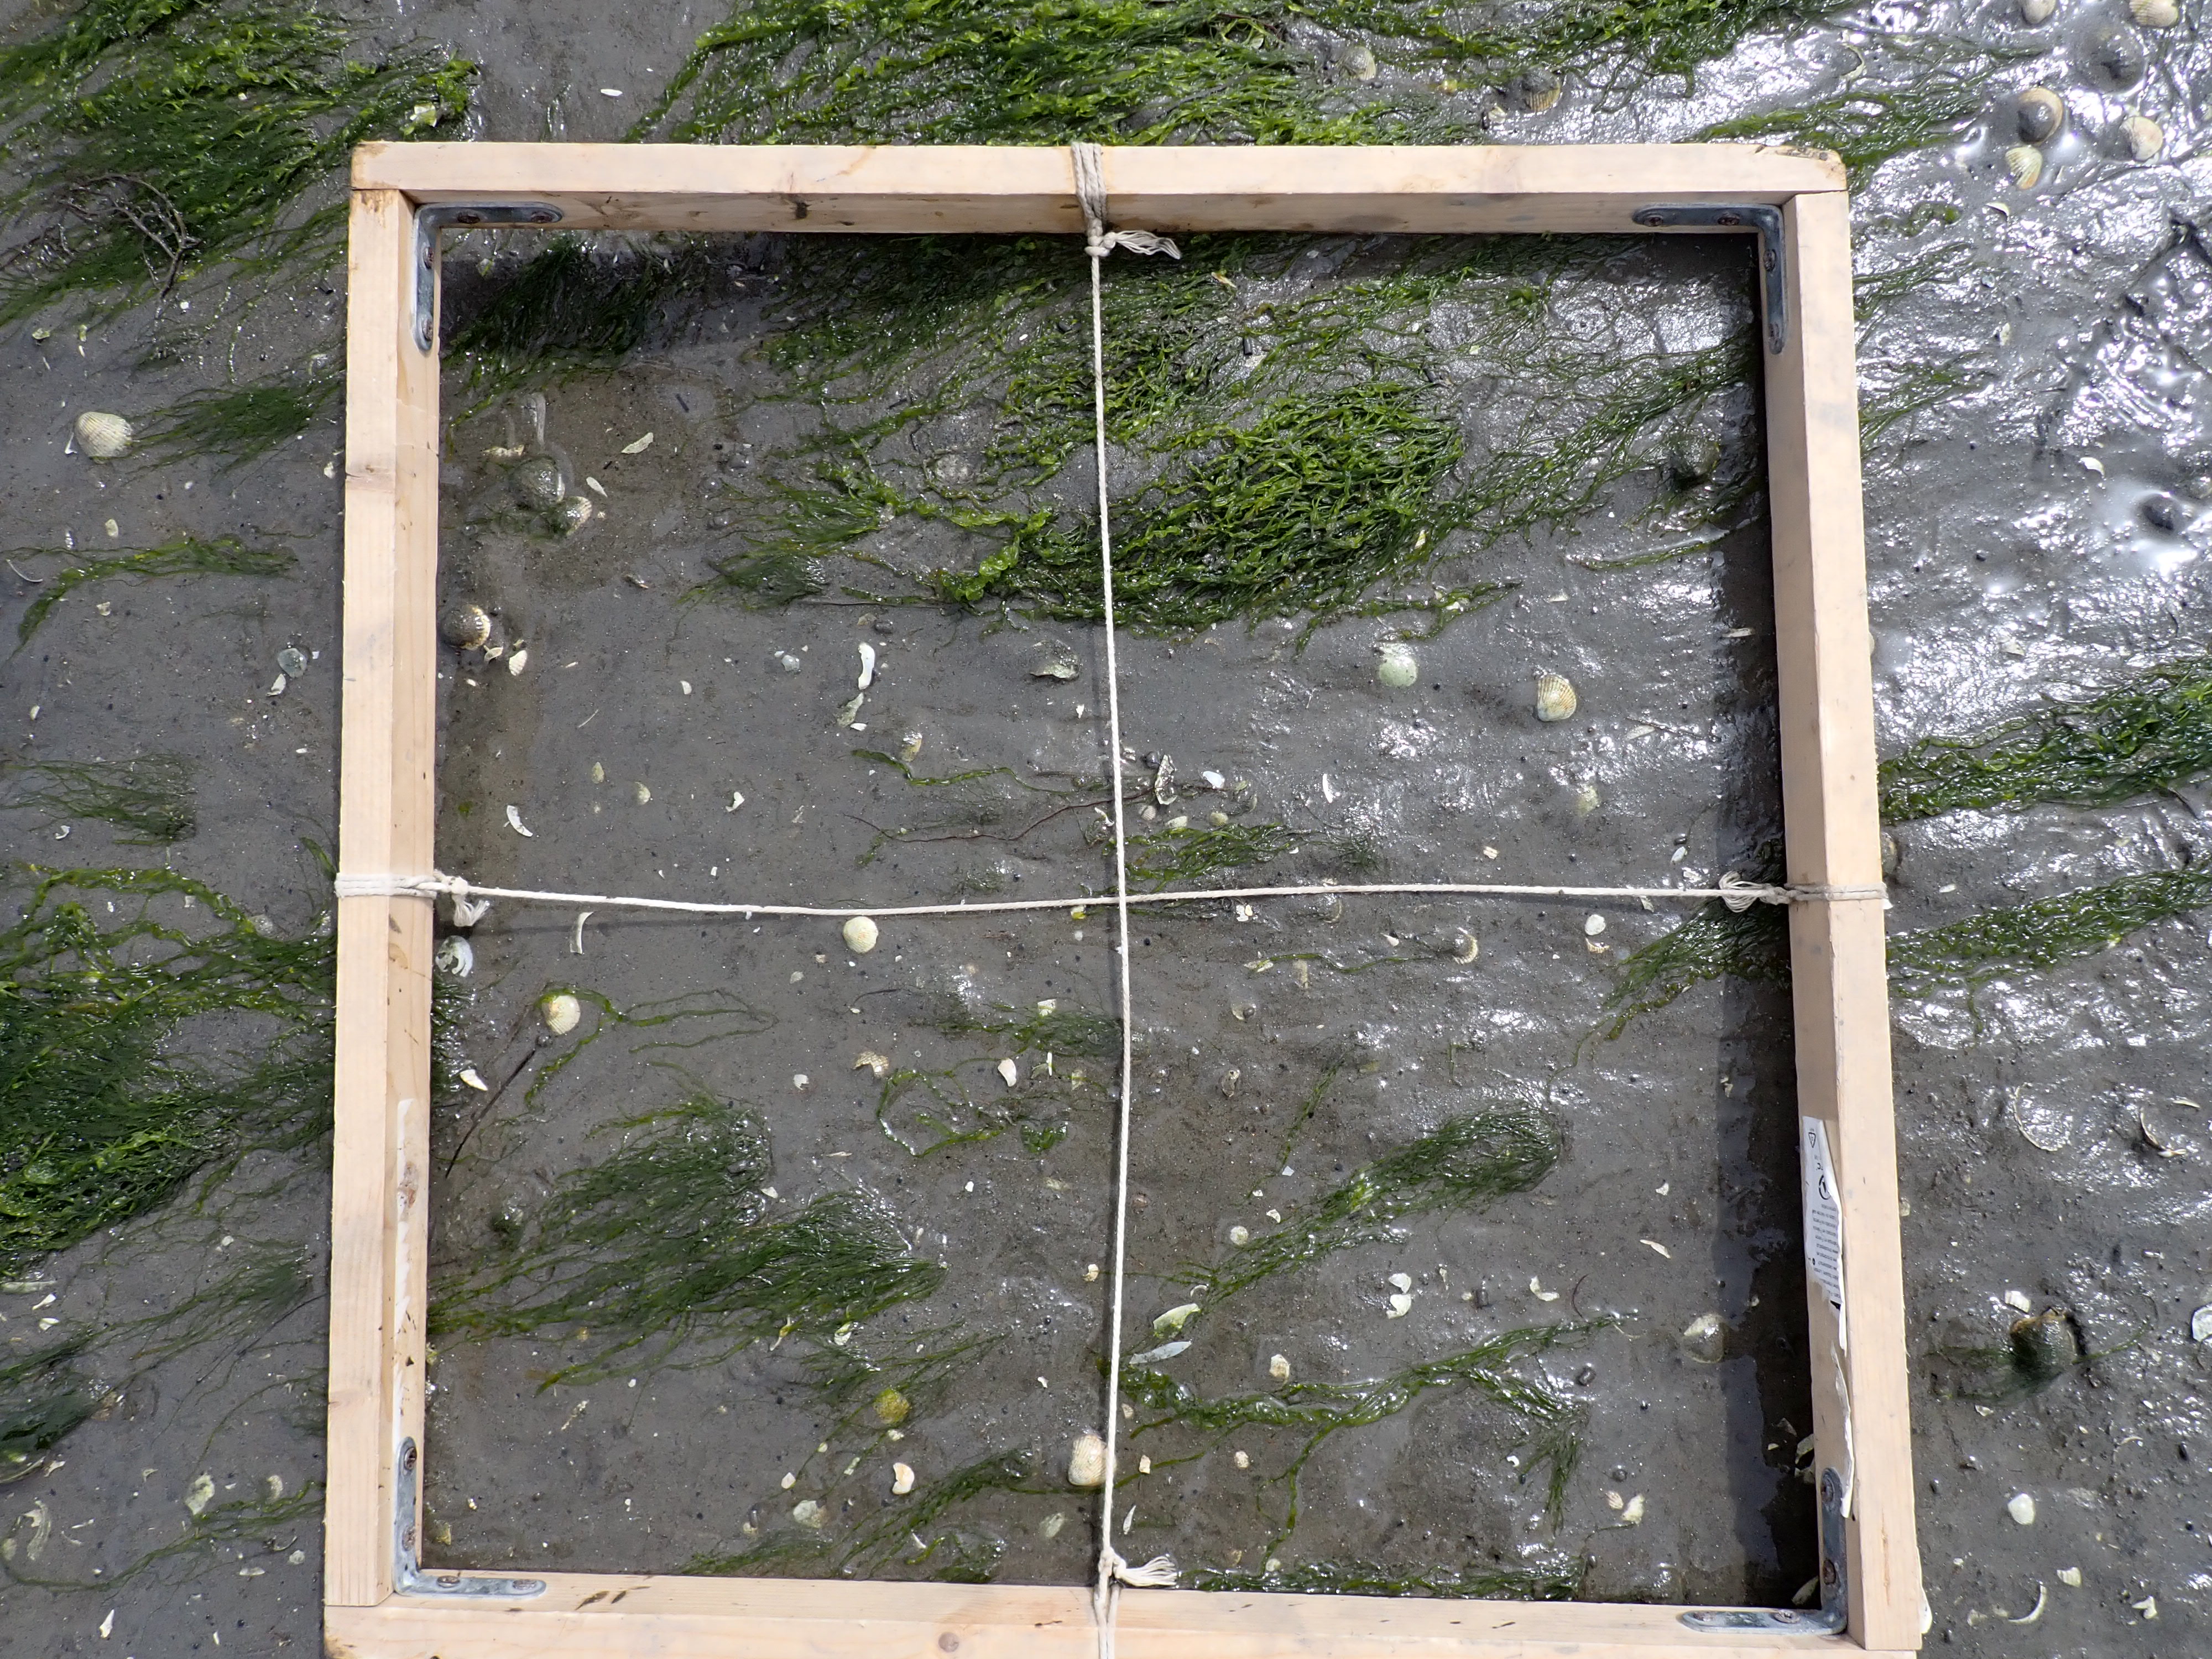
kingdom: Plantae
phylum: Chlorophyta
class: Ulvophyceae
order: Ulvales
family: Ulvaceae
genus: Ulva
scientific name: Ulva
